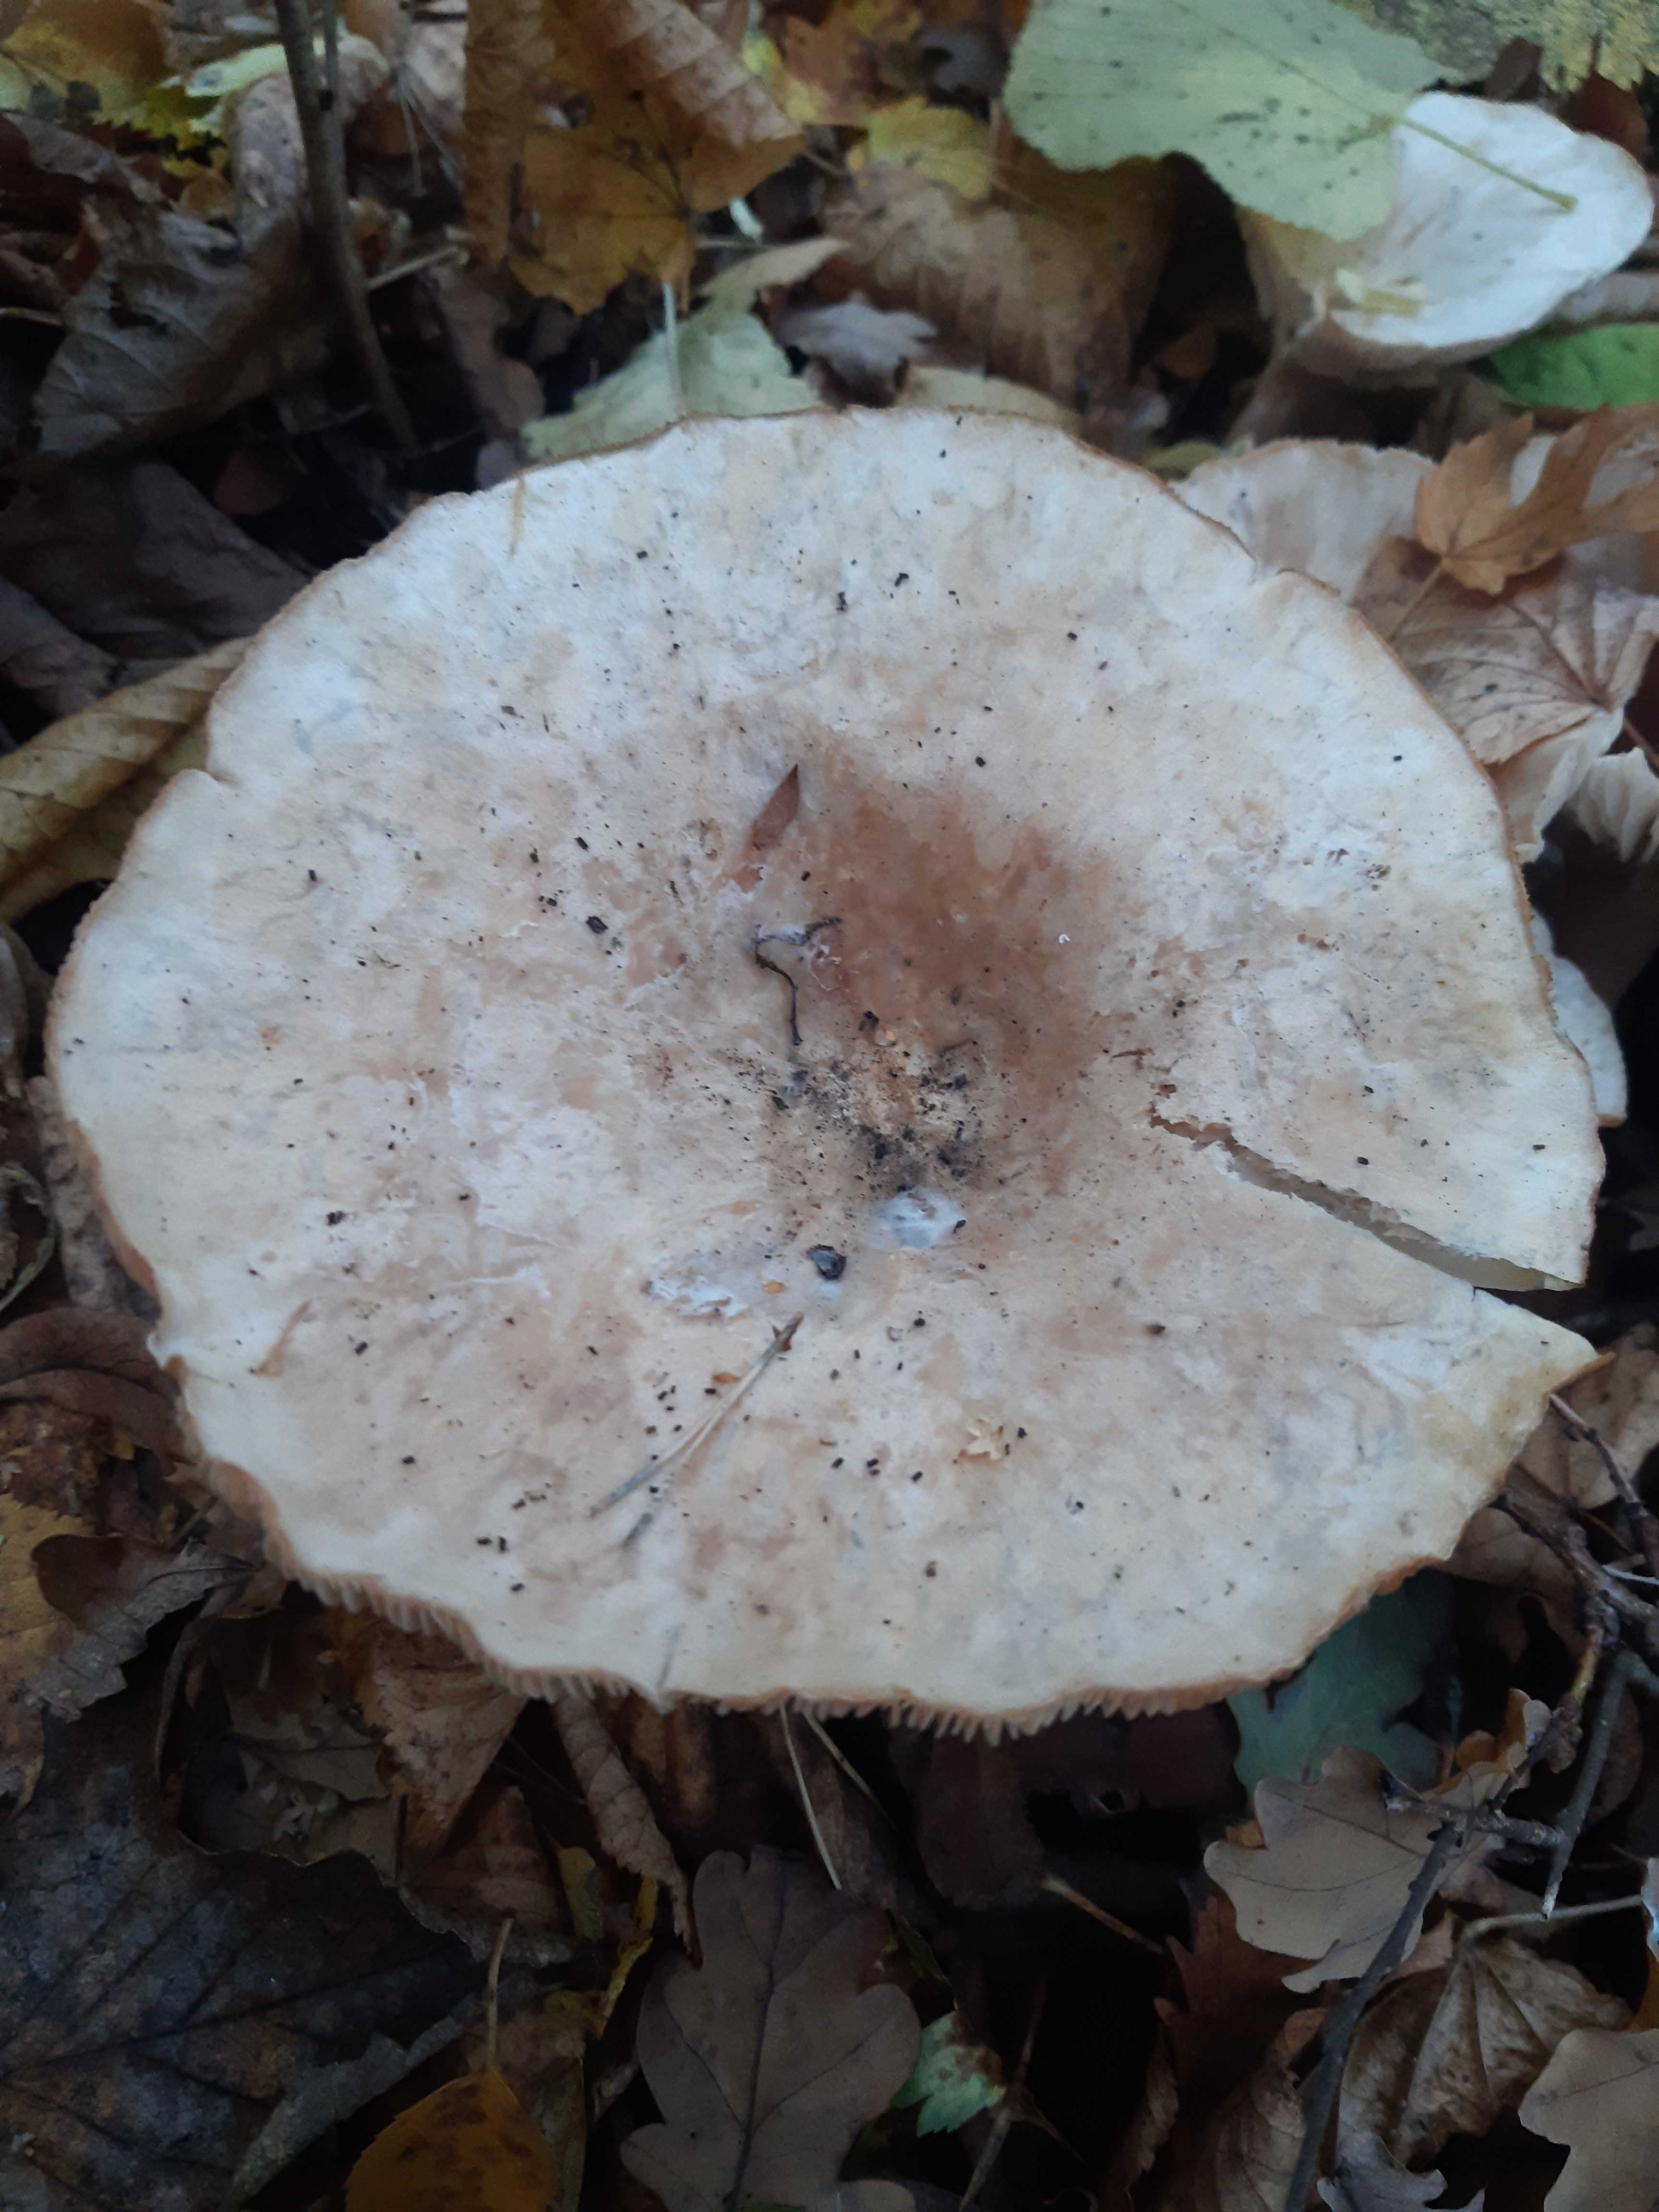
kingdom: Fungi
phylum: Basidiomycota
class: Agaricomycetes
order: Agaricales
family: Tricholomataceae
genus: Clitocybe
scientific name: Clitocybe
